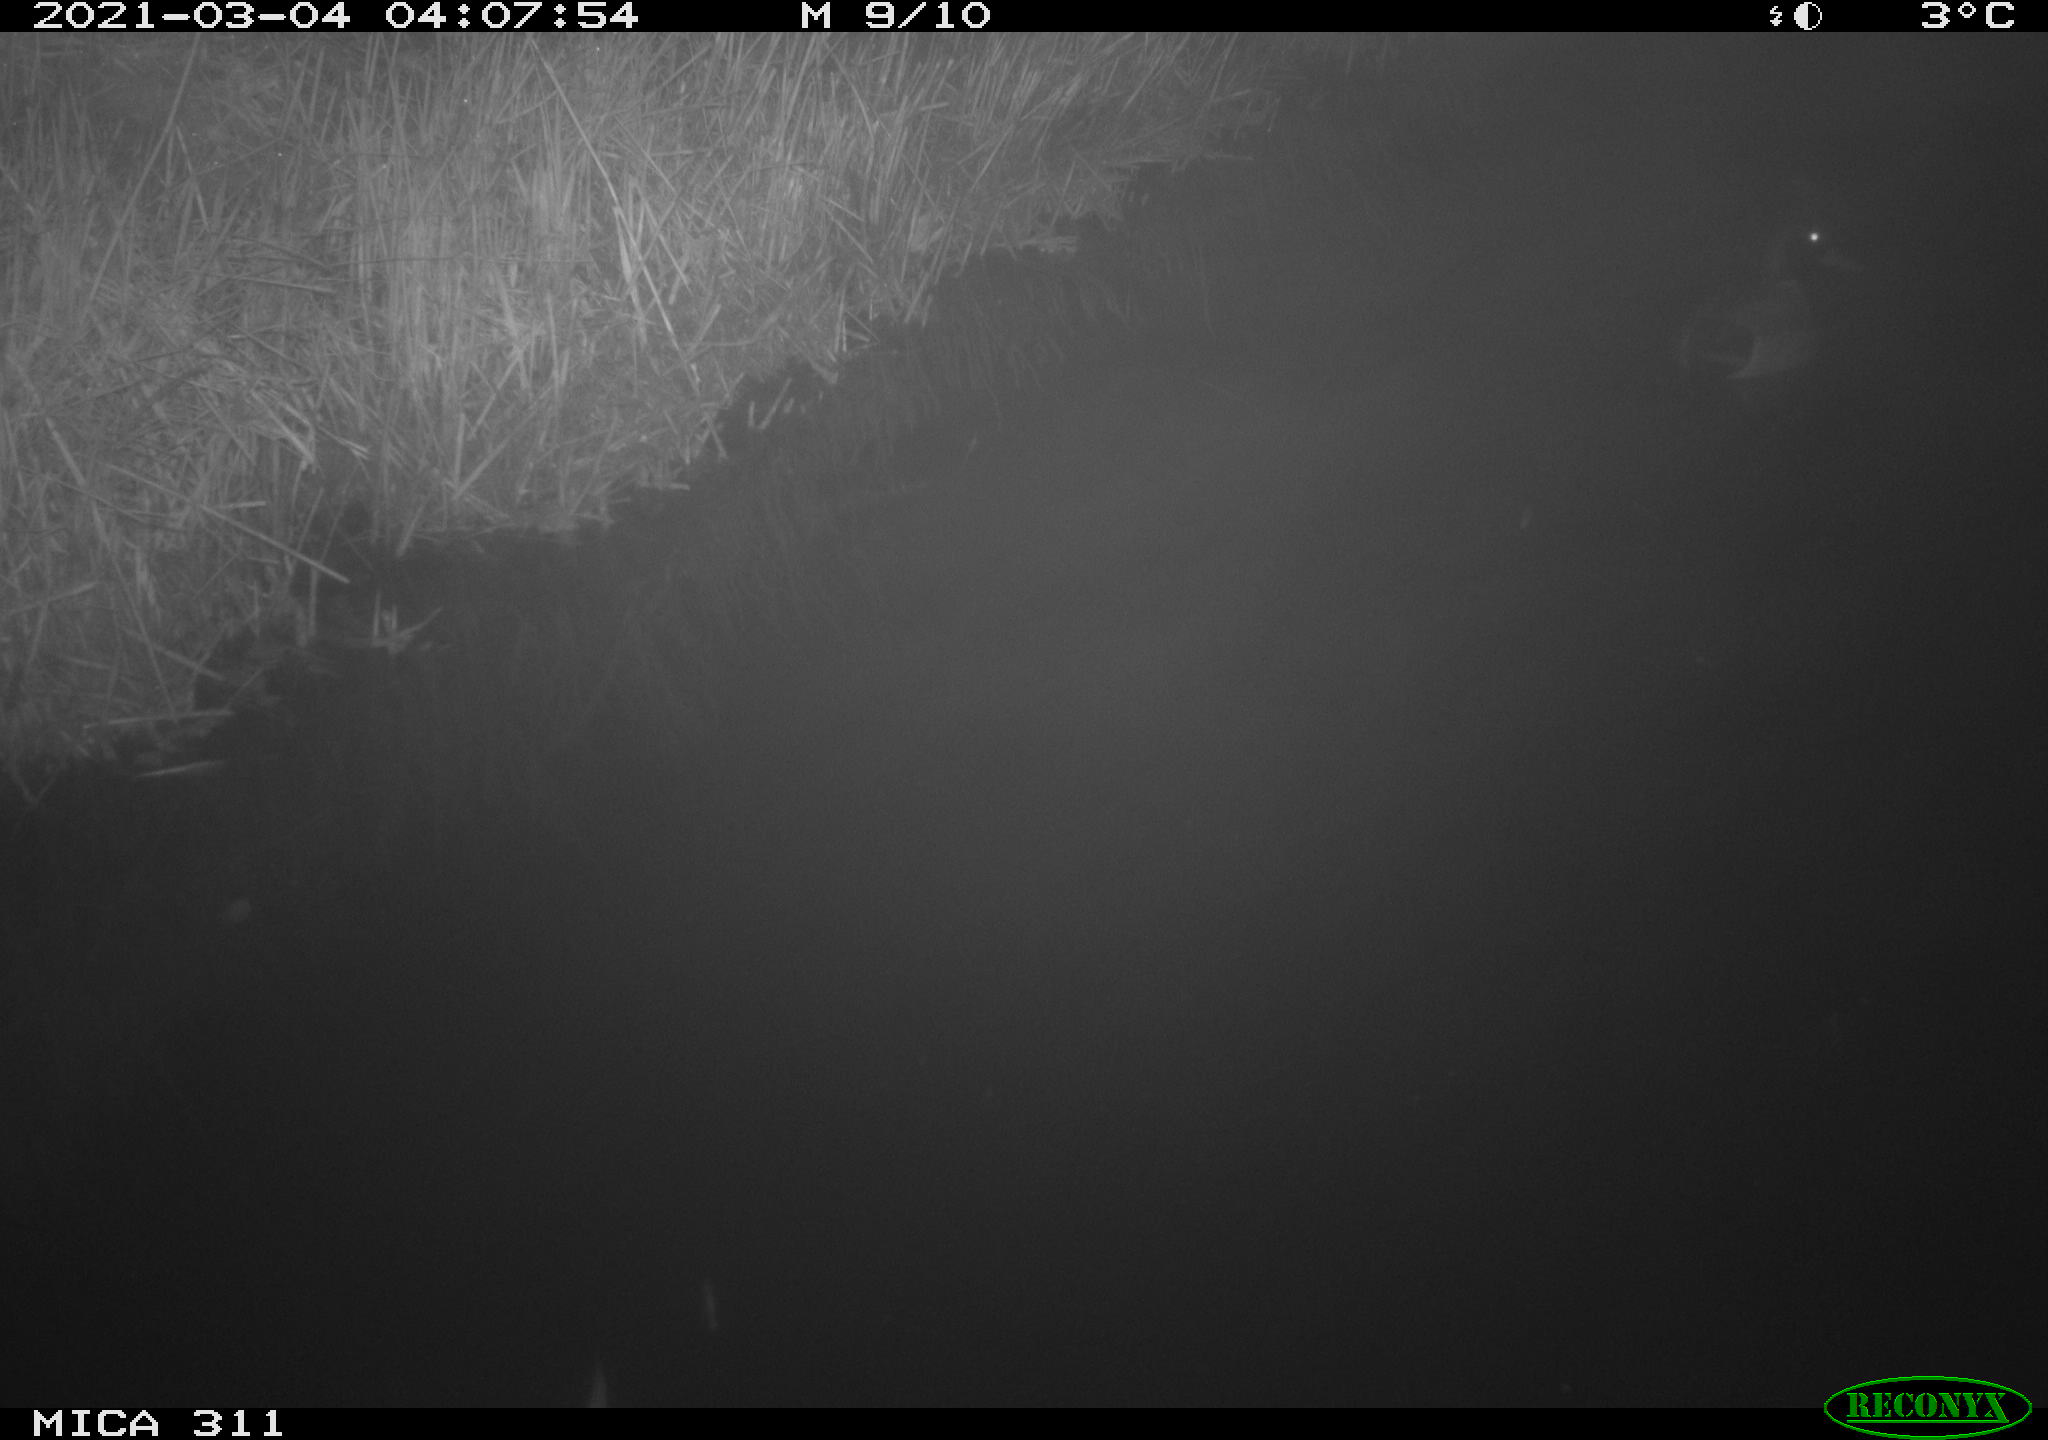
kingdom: Animalia
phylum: Chordata
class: Aves
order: Anseriformes
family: Anatidae
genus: Anas
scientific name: Anas
